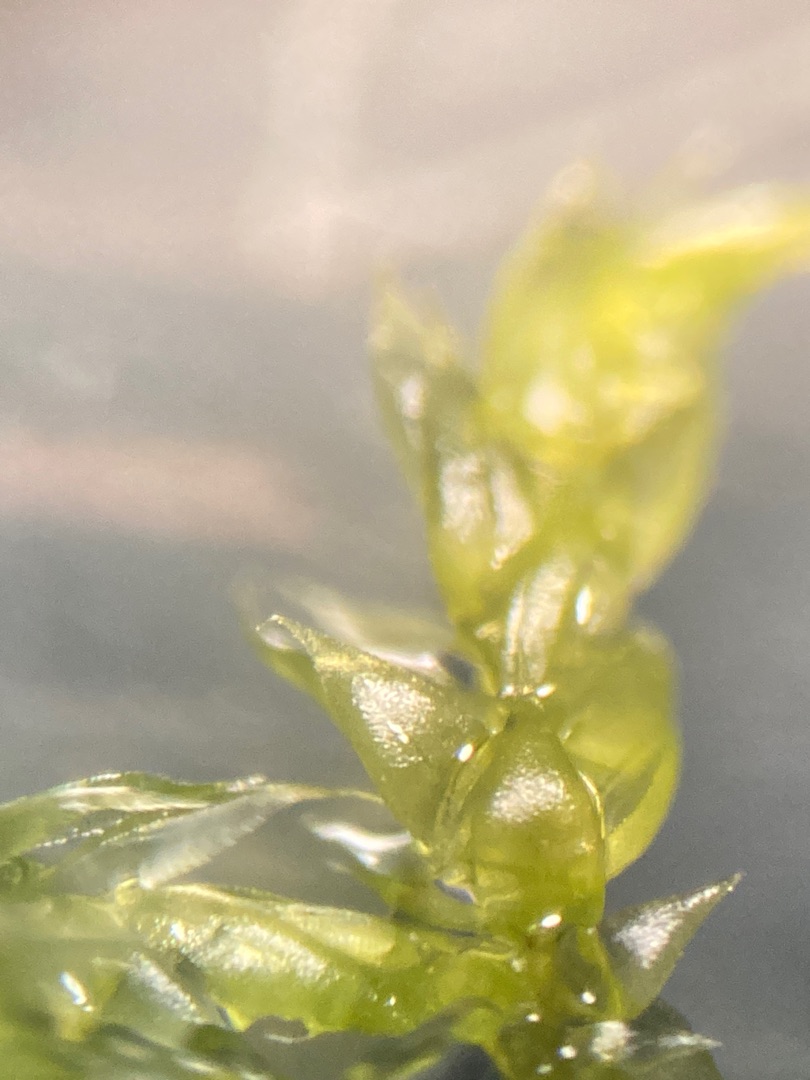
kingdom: Plantae
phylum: Bryophyta
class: Bryopsida
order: Hypnales
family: Lembophyllaceae
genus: Pseudisothecium
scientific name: Pseudisothecium myosuroides
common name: Slank stammemos
